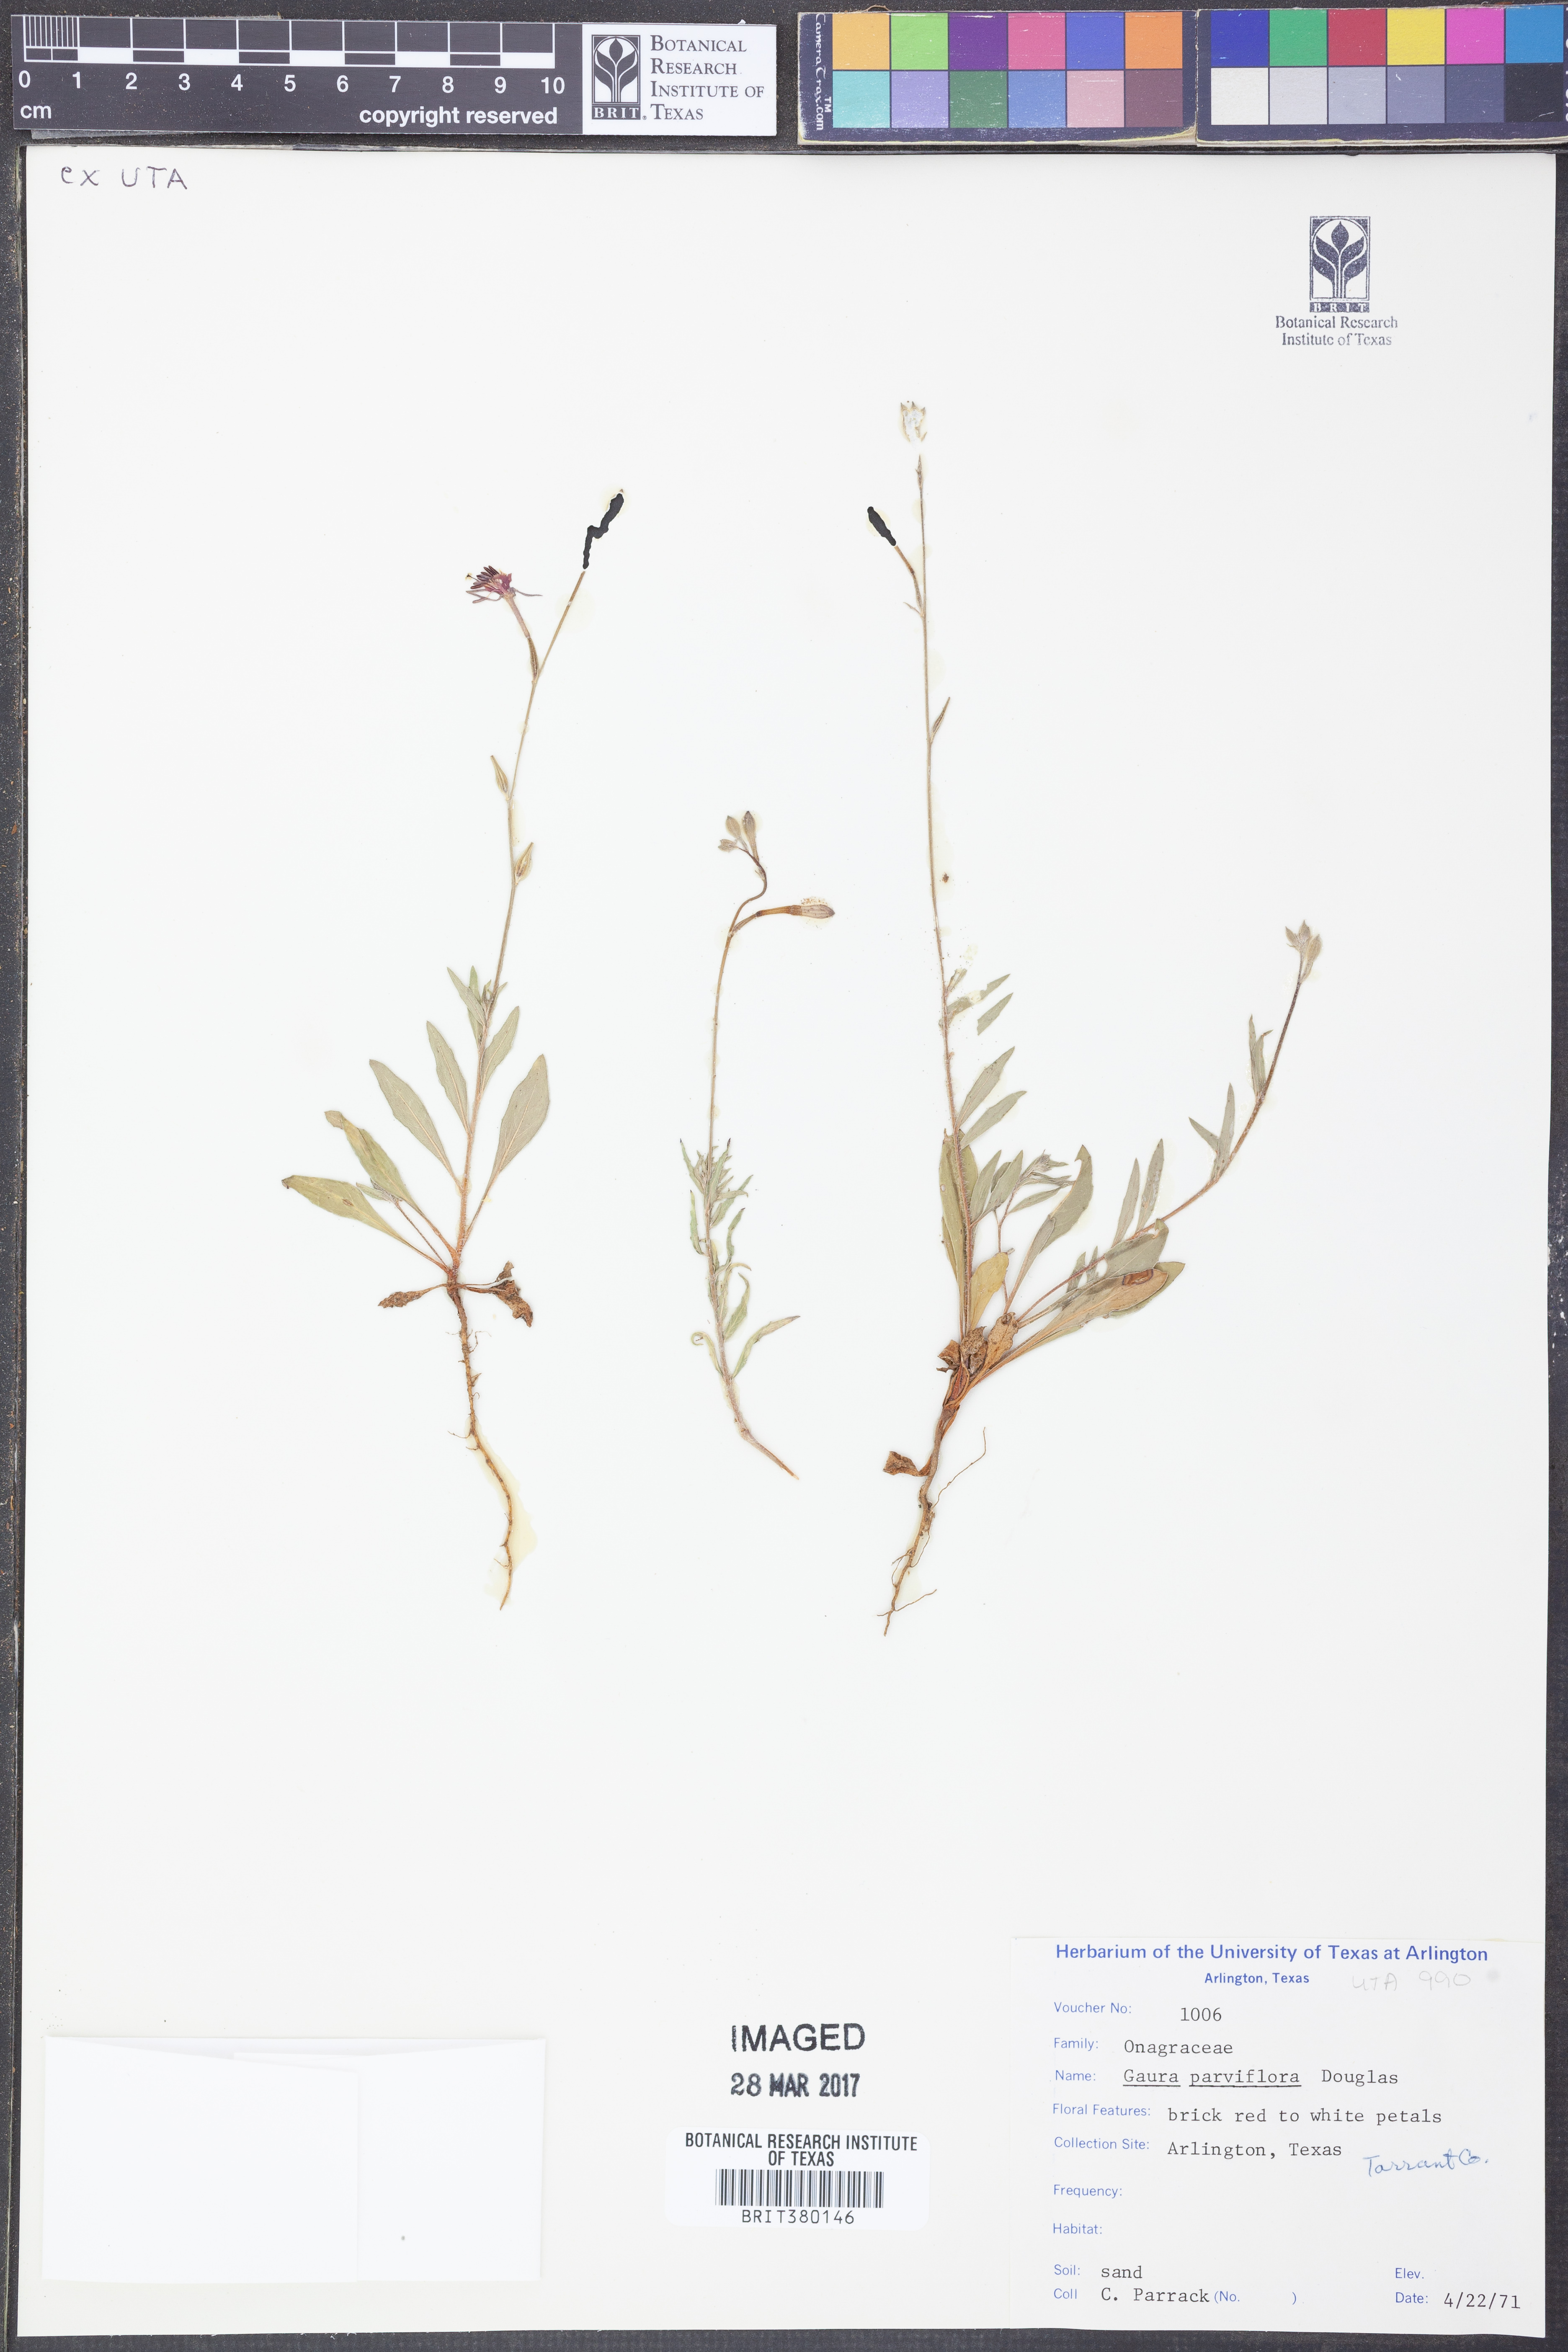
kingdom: Plantae
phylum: Tracheophyta
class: Magnoliopsida
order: Myrtales
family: Onagraceae
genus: Oenothera
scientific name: Oenothera curtiflora
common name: Velvetweed
